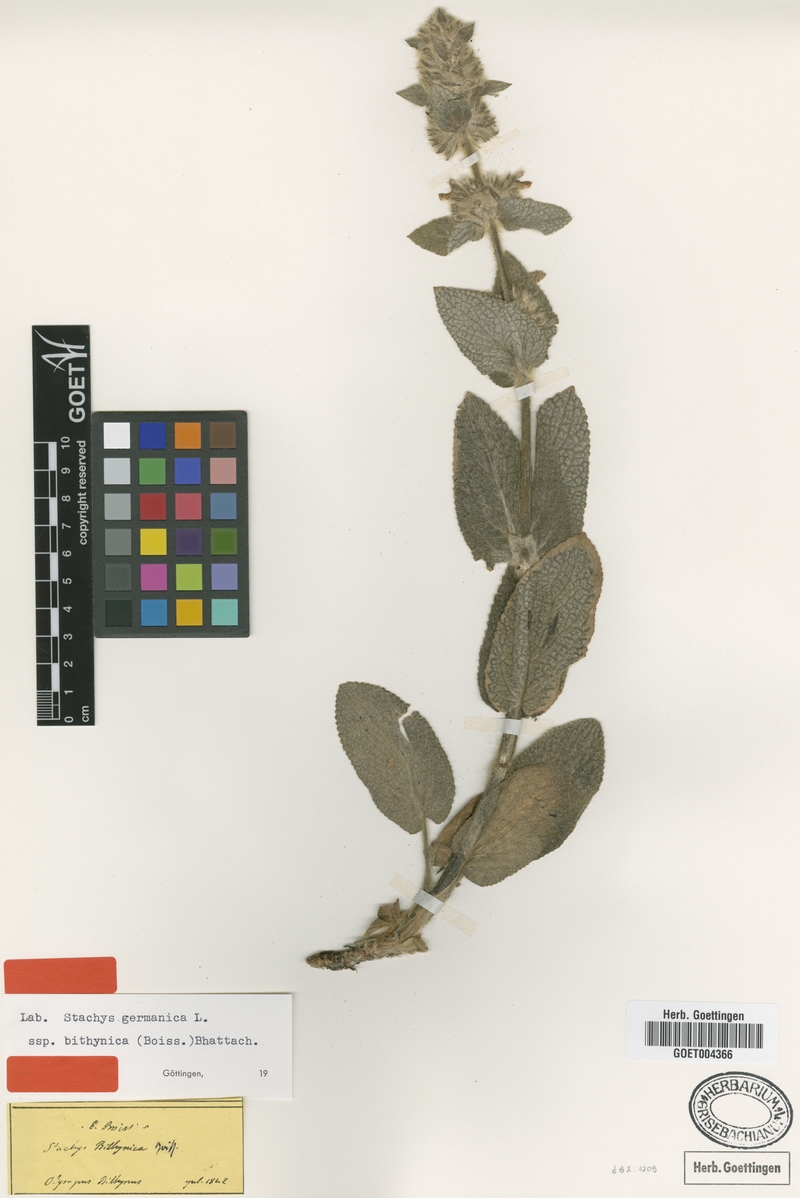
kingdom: Plantae
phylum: Tracheophyta
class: Magnoliopsida
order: Lamiales
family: Lamiaceae
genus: Stachys
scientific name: Stachys bithynica
